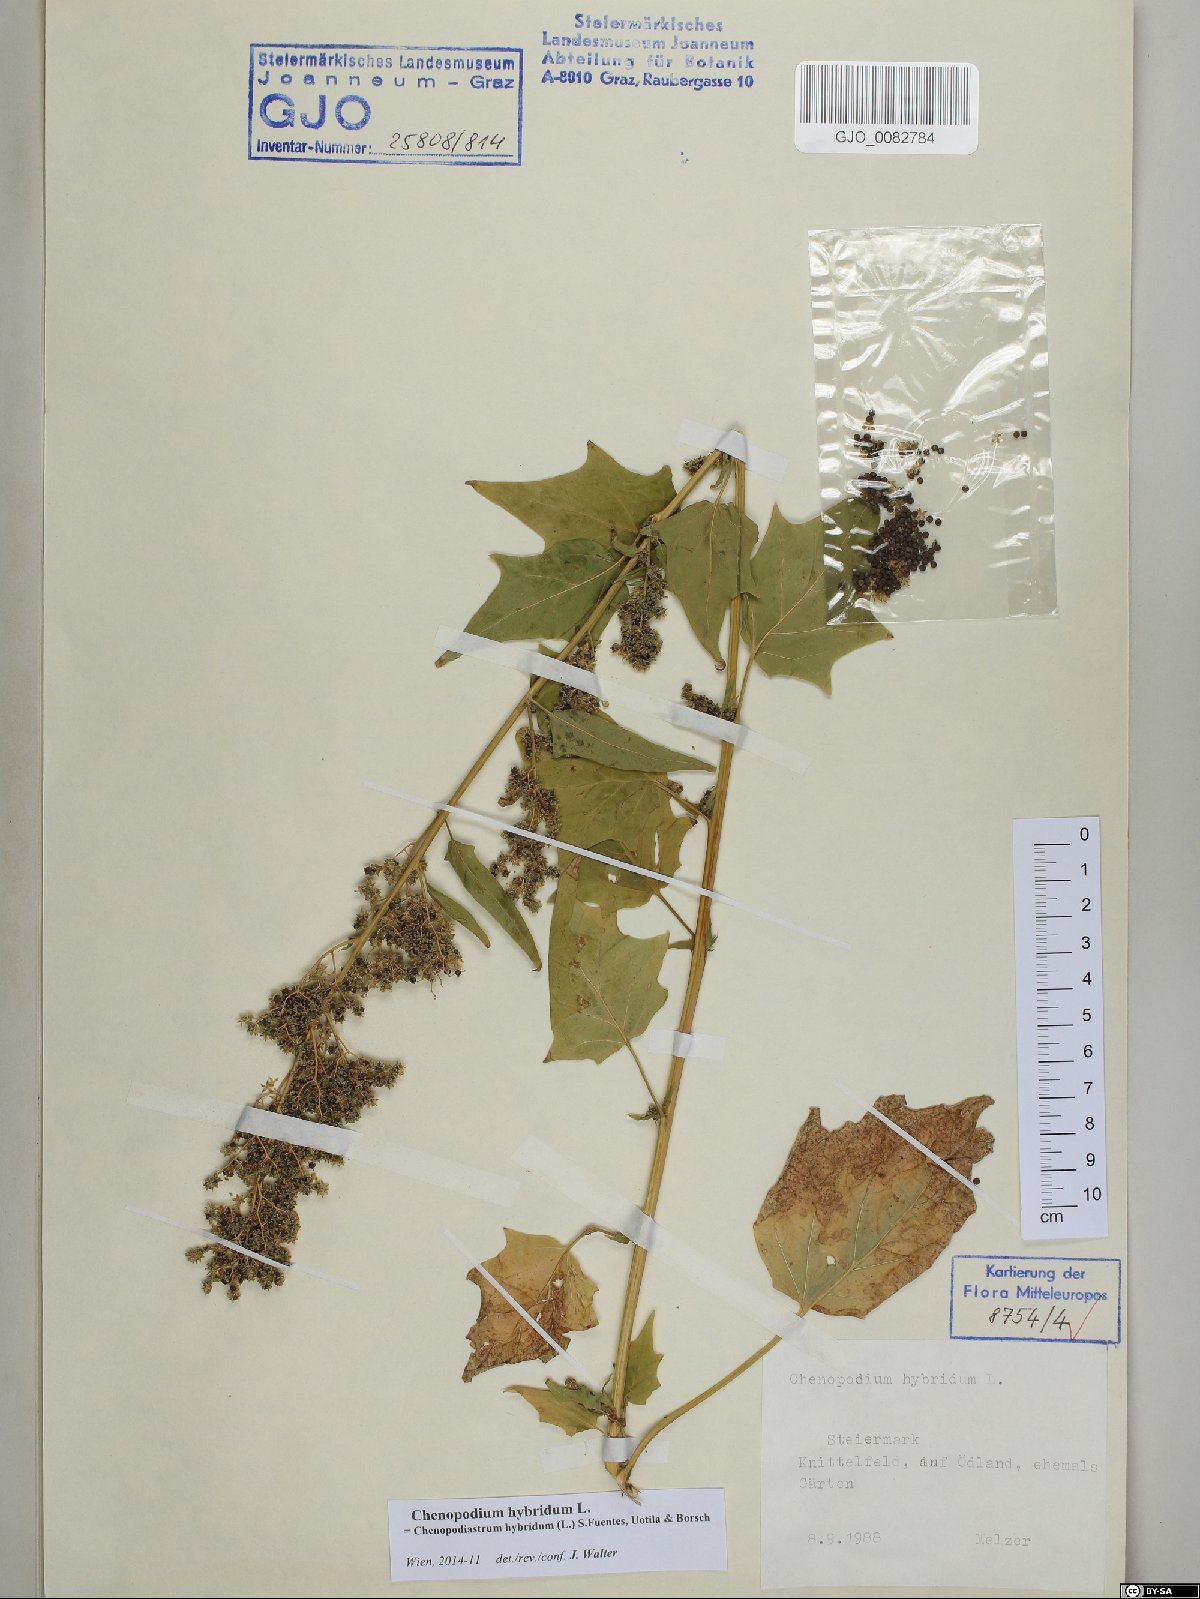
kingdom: Plantae
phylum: Tracheophyta
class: Magnoliopsida
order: Caryophyllales
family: Amaranthaceae
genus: Chenopodiastrum
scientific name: Chenopodiastrum hybridum
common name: Mapleleaf goosefoot
